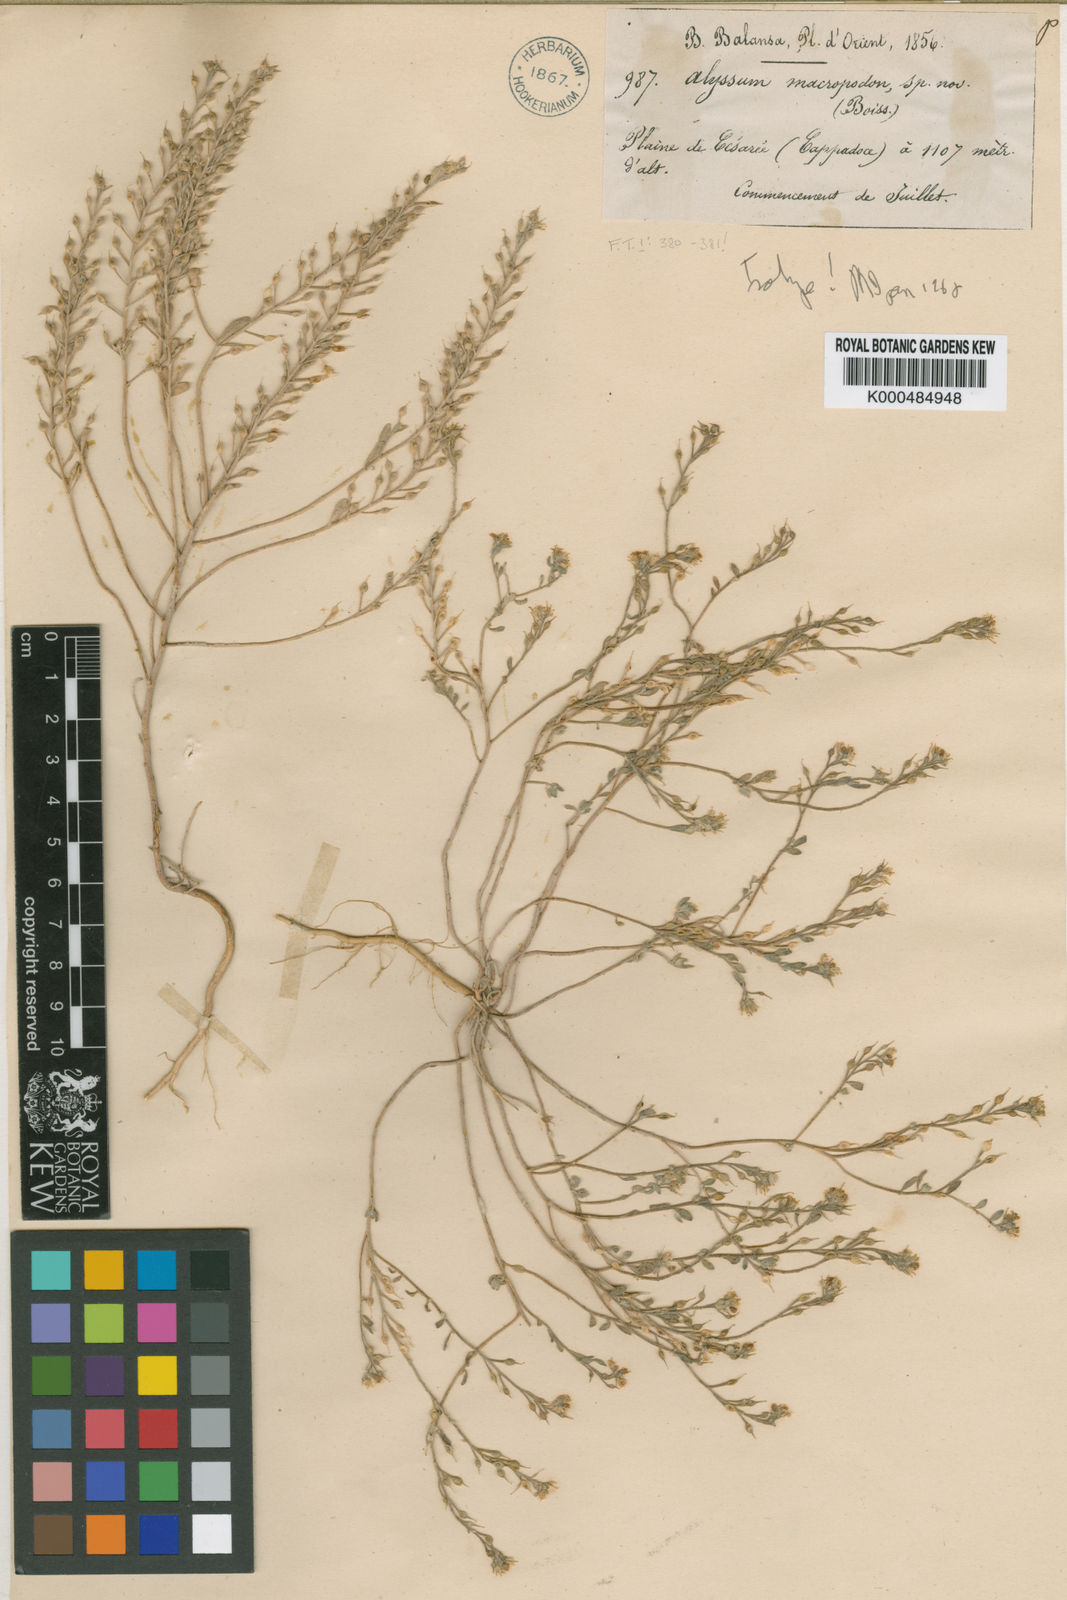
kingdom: Plantae
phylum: Tracheophyta
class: Magnoliopsida
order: Brassicales
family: Brassicaceae
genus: Alyssum
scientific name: Alyssum macropodum
